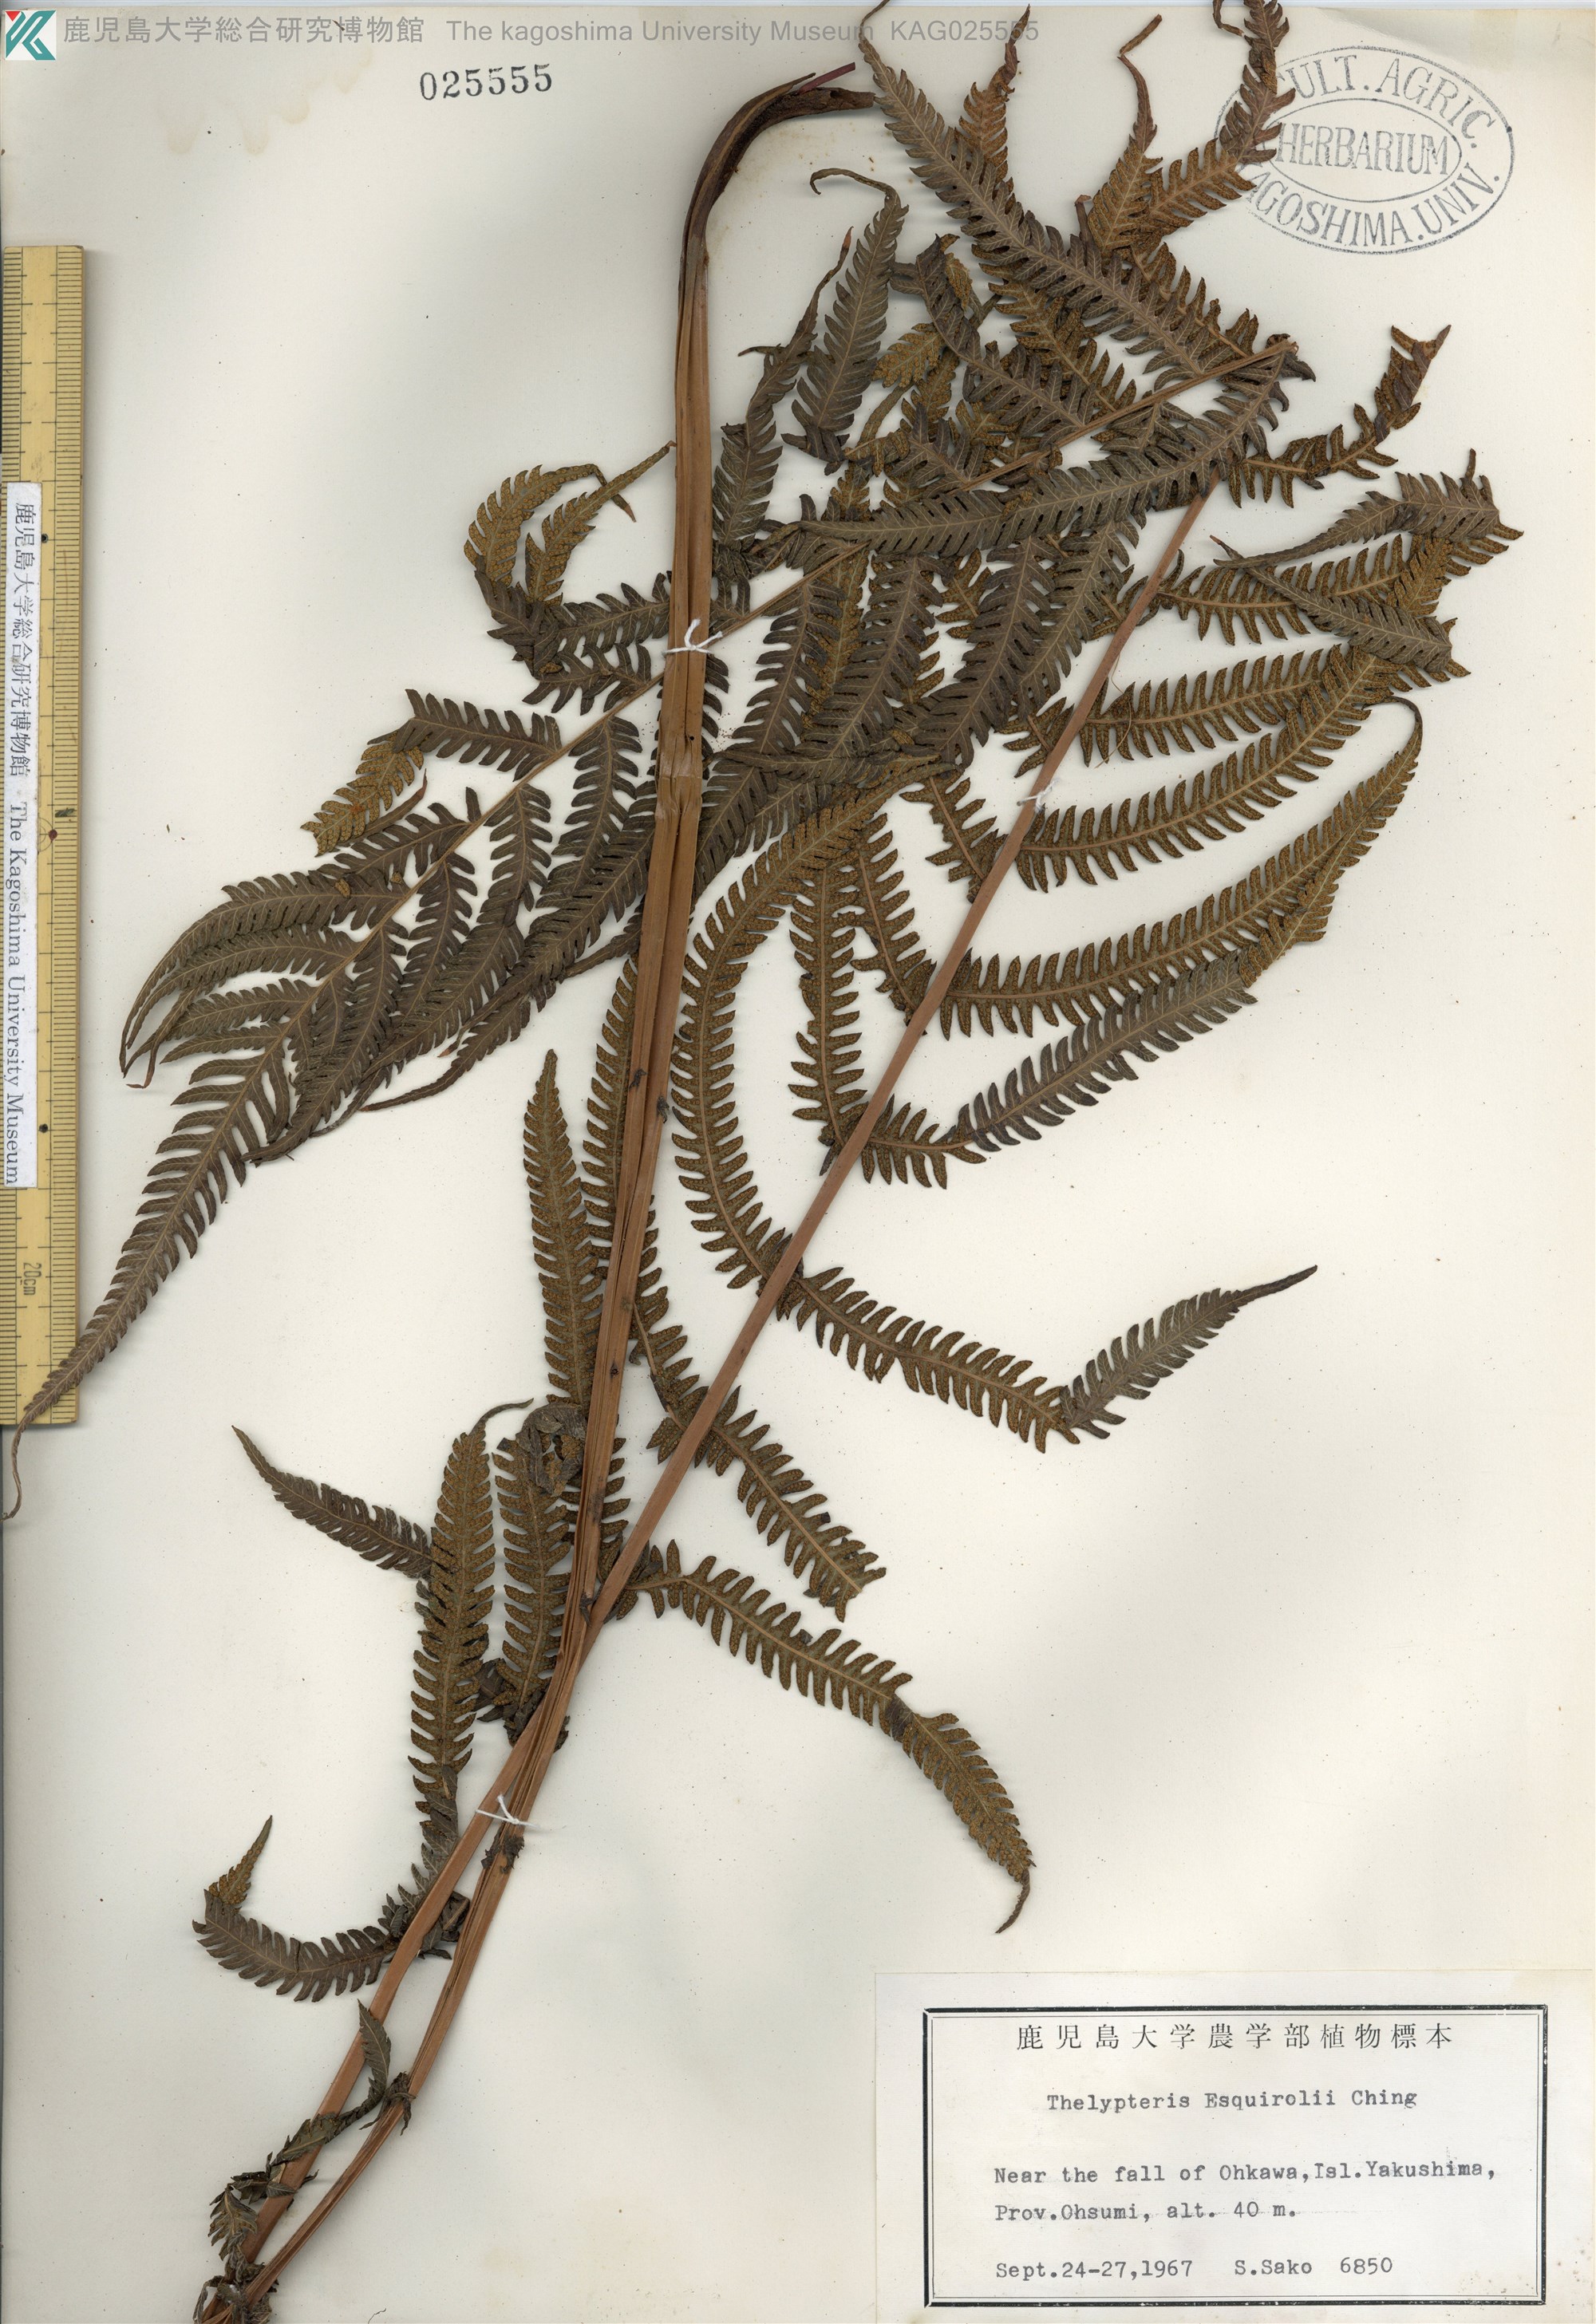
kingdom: Plantae
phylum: Tracheophyta
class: Polypodiopsida
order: Polypodiales
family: Thelypteridaceae
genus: Pseudocyclosorus
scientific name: Pseudocyclosorus esquirolii
